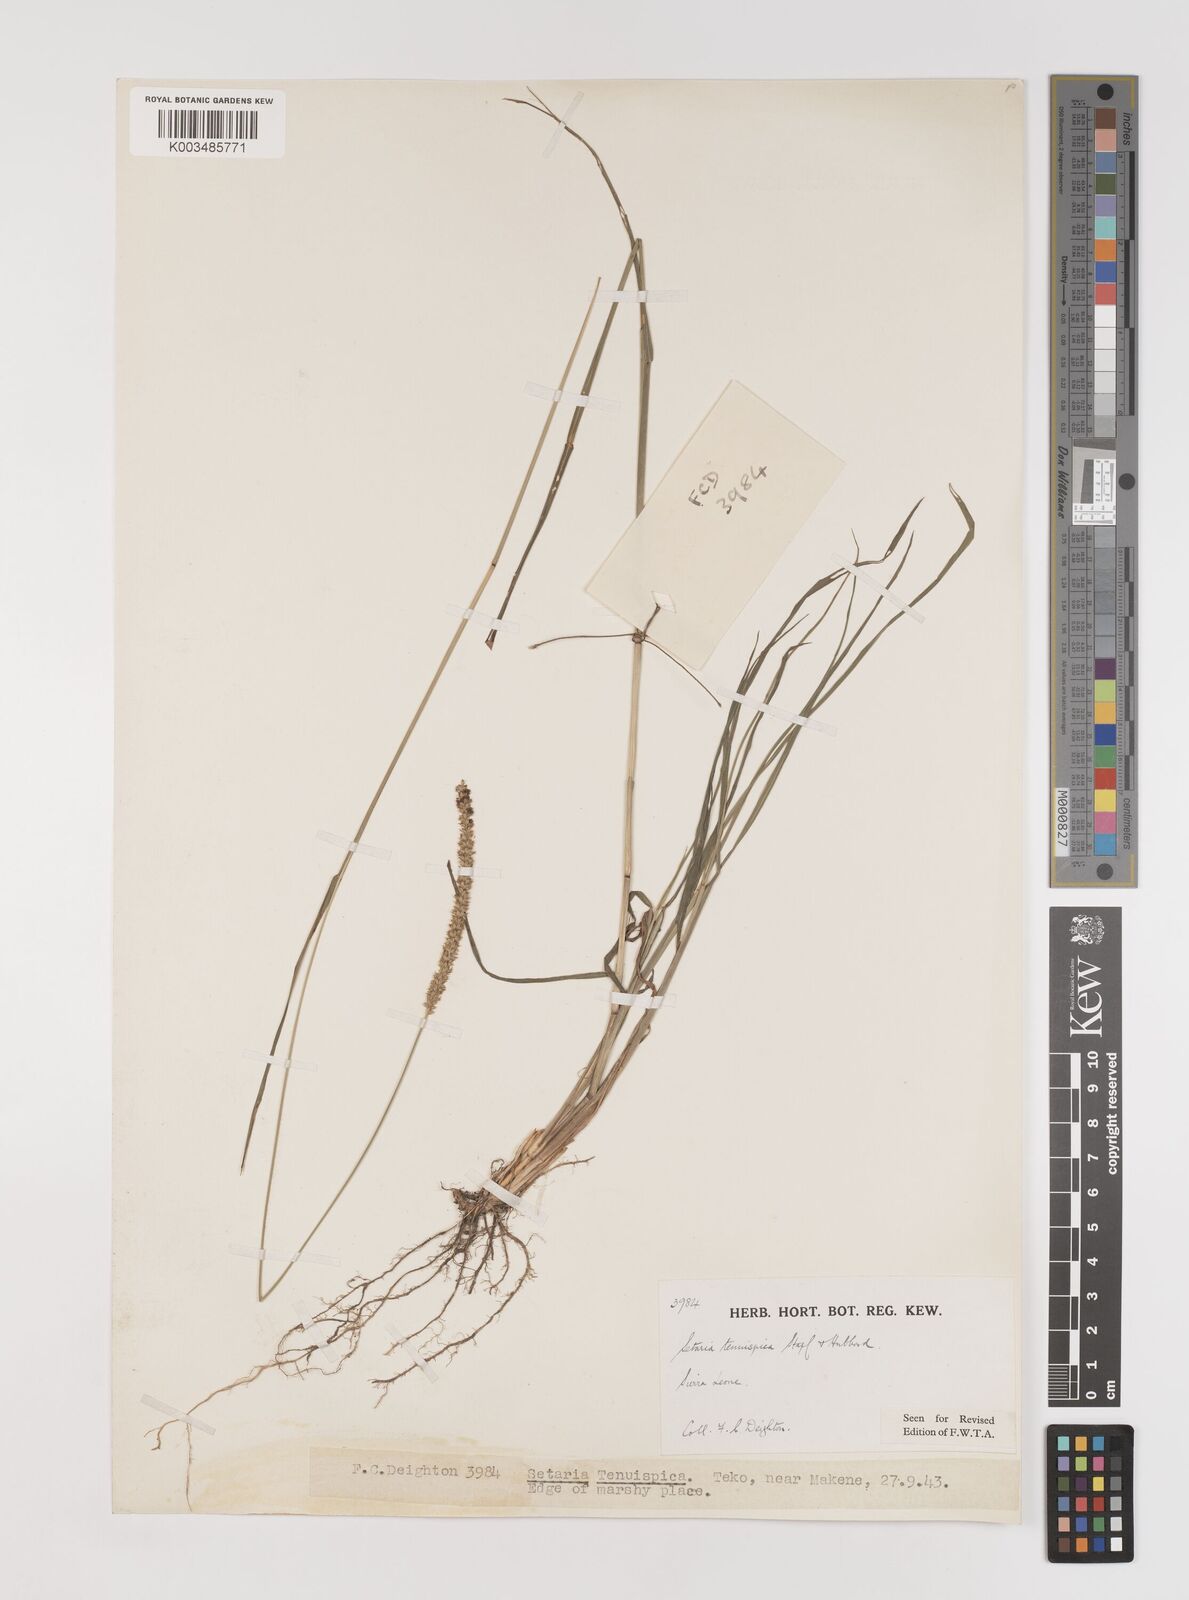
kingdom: Plantae
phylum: Tracheophyta
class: Liliopsida
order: Poales
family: Poaceae
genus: Setaria
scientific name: Setaria sphacelata
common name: African bristlegrass
